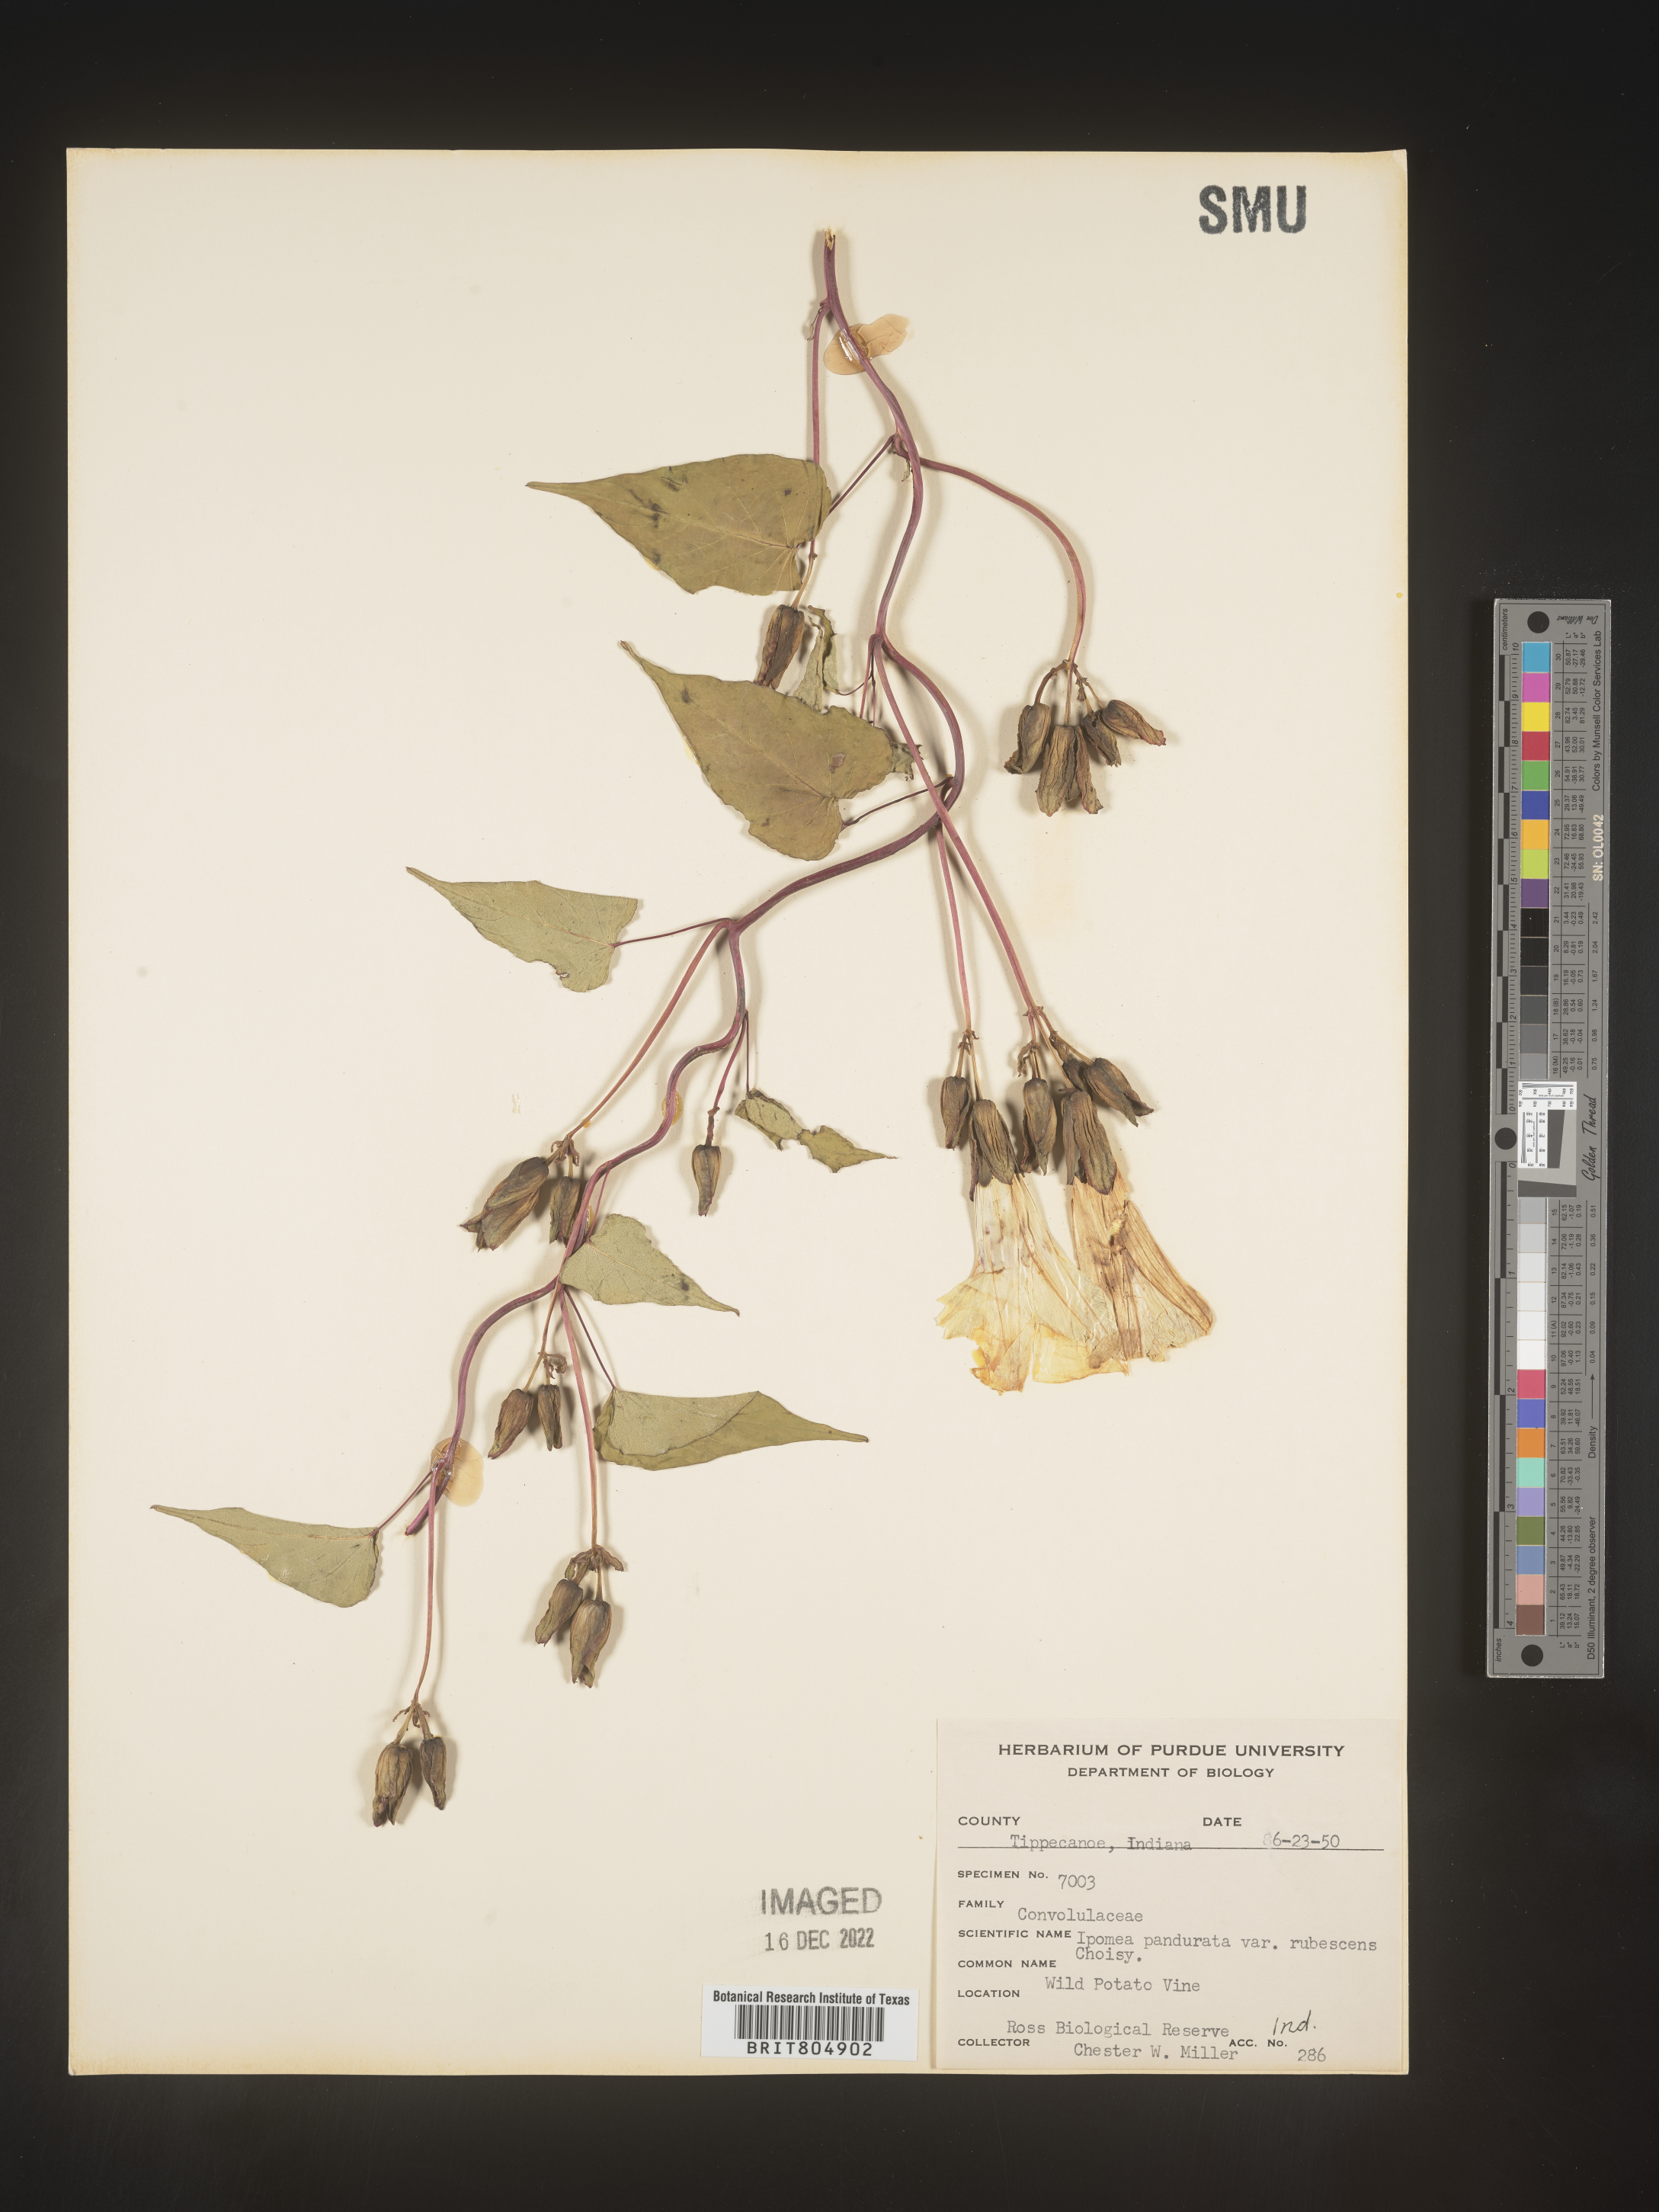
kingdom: Plantae
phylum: Tracheophyta
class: Magnoliopsida
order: Solanales
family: Convolvulaceae
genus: Ipomoea
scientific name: Ipomoea pandurata
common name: Man-of-the-earth
